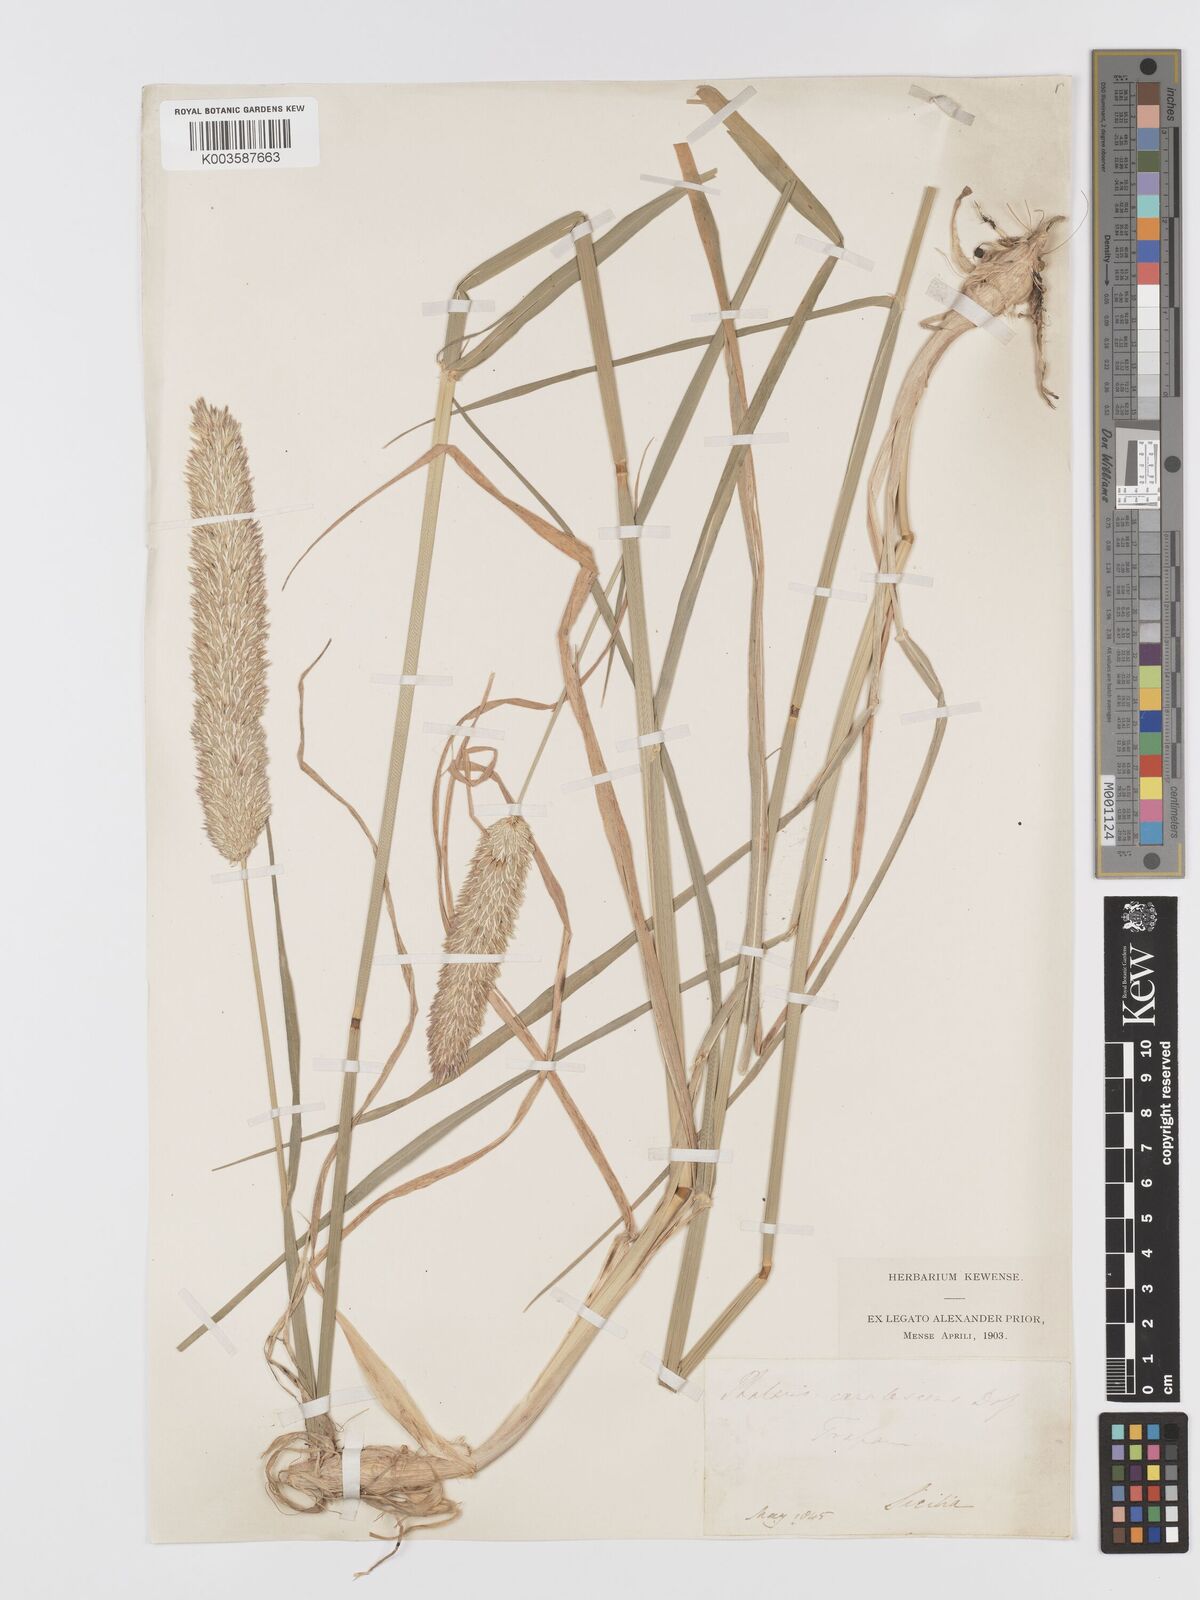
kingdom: Plantae
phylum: Tracheophyta
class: Liliopsida
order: Poales
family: Poaceae
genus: Phalaris
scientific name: Phalaris coerulescens
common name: Sunolgrass
